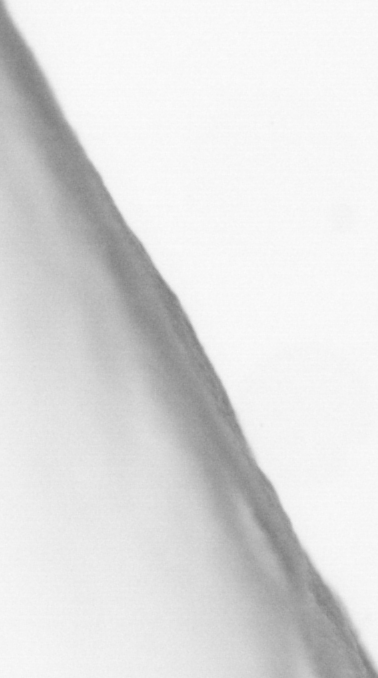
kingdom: Animalia
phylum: Chordata
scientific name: Chordata
